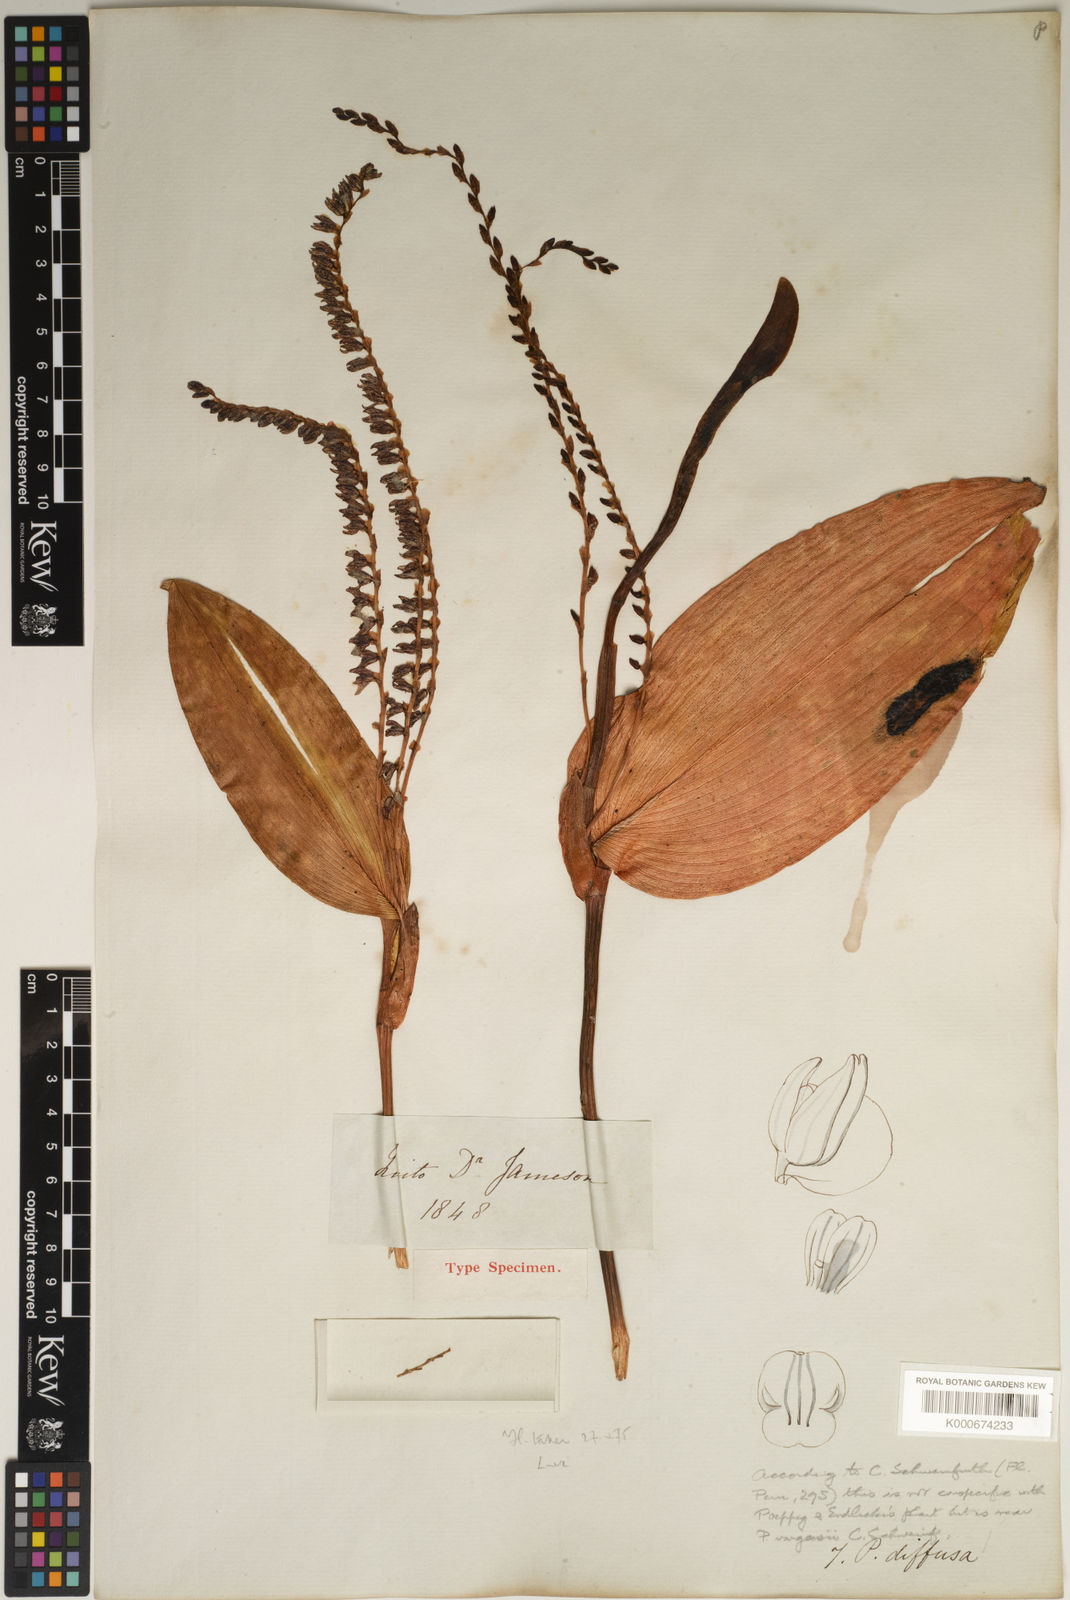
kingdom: Plantae
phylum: Tracheophyta
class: Liliopsida
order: Asparagales
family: Orchidaceae
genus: Pleurothallis
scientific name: Pleurothallis revoluta
